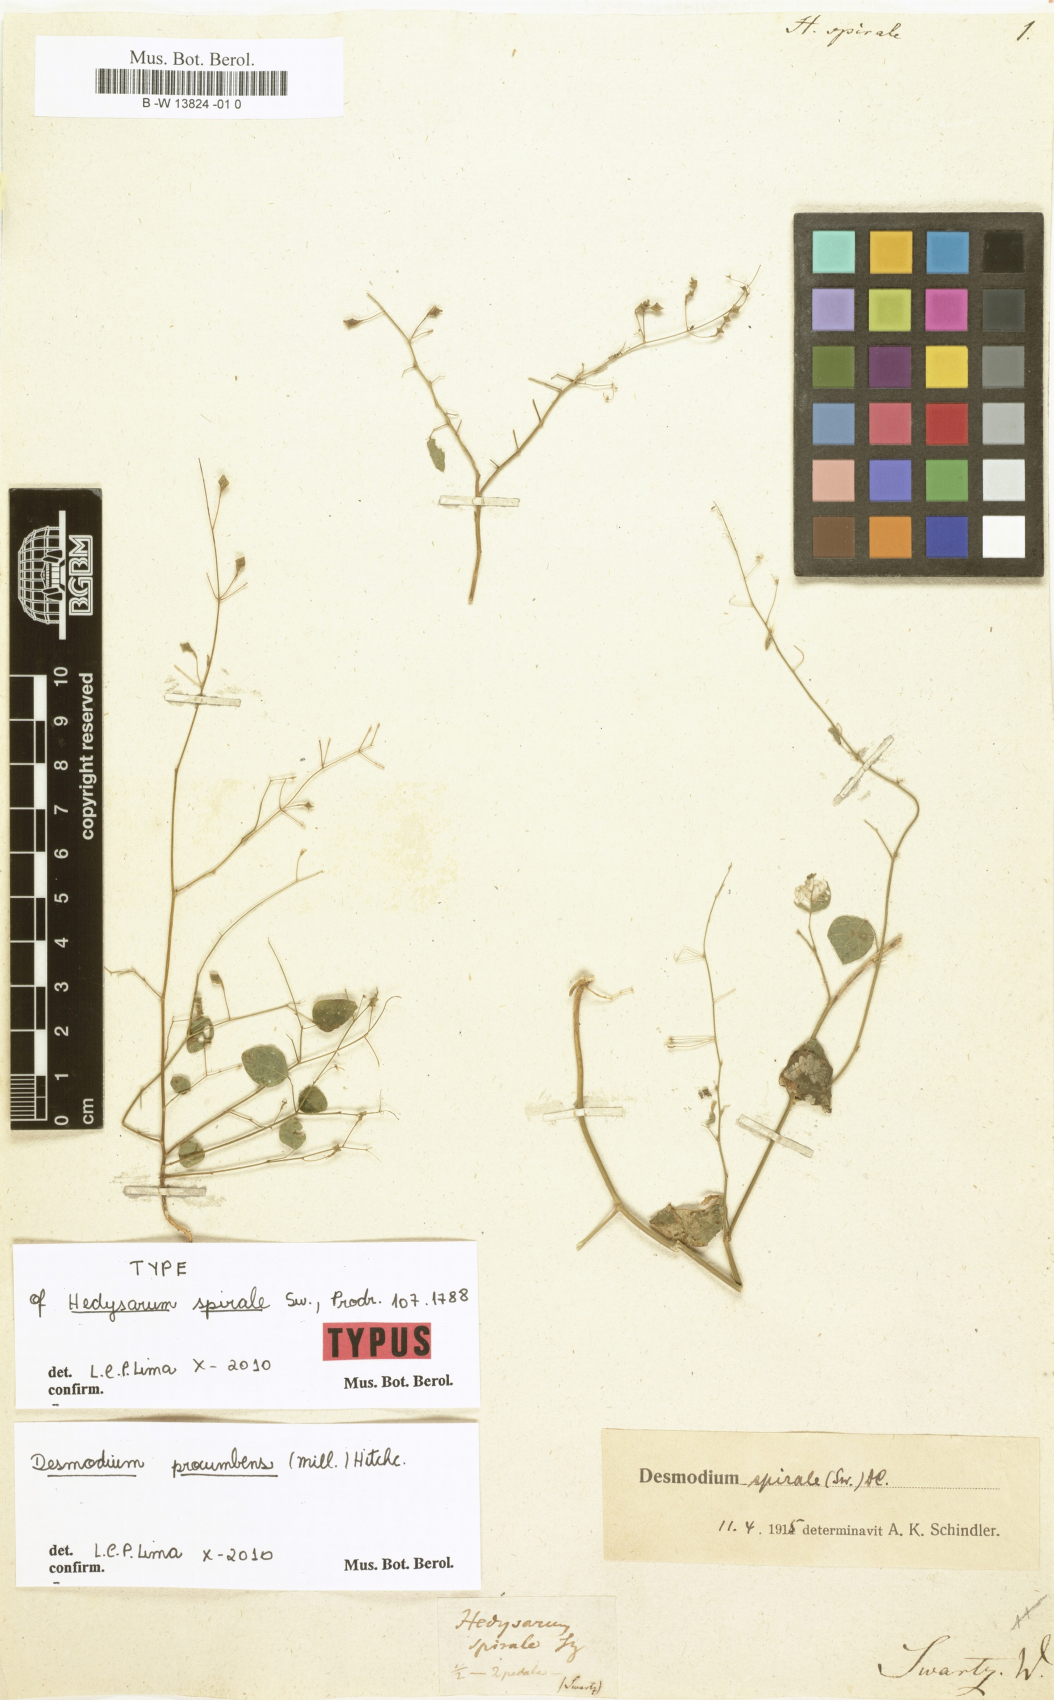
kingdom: Plantae
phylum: Tracheophyta
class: Magnoliopsida
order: Fabales
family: Fabaceae
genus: Desmodium
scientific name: Desmodium procumbens
